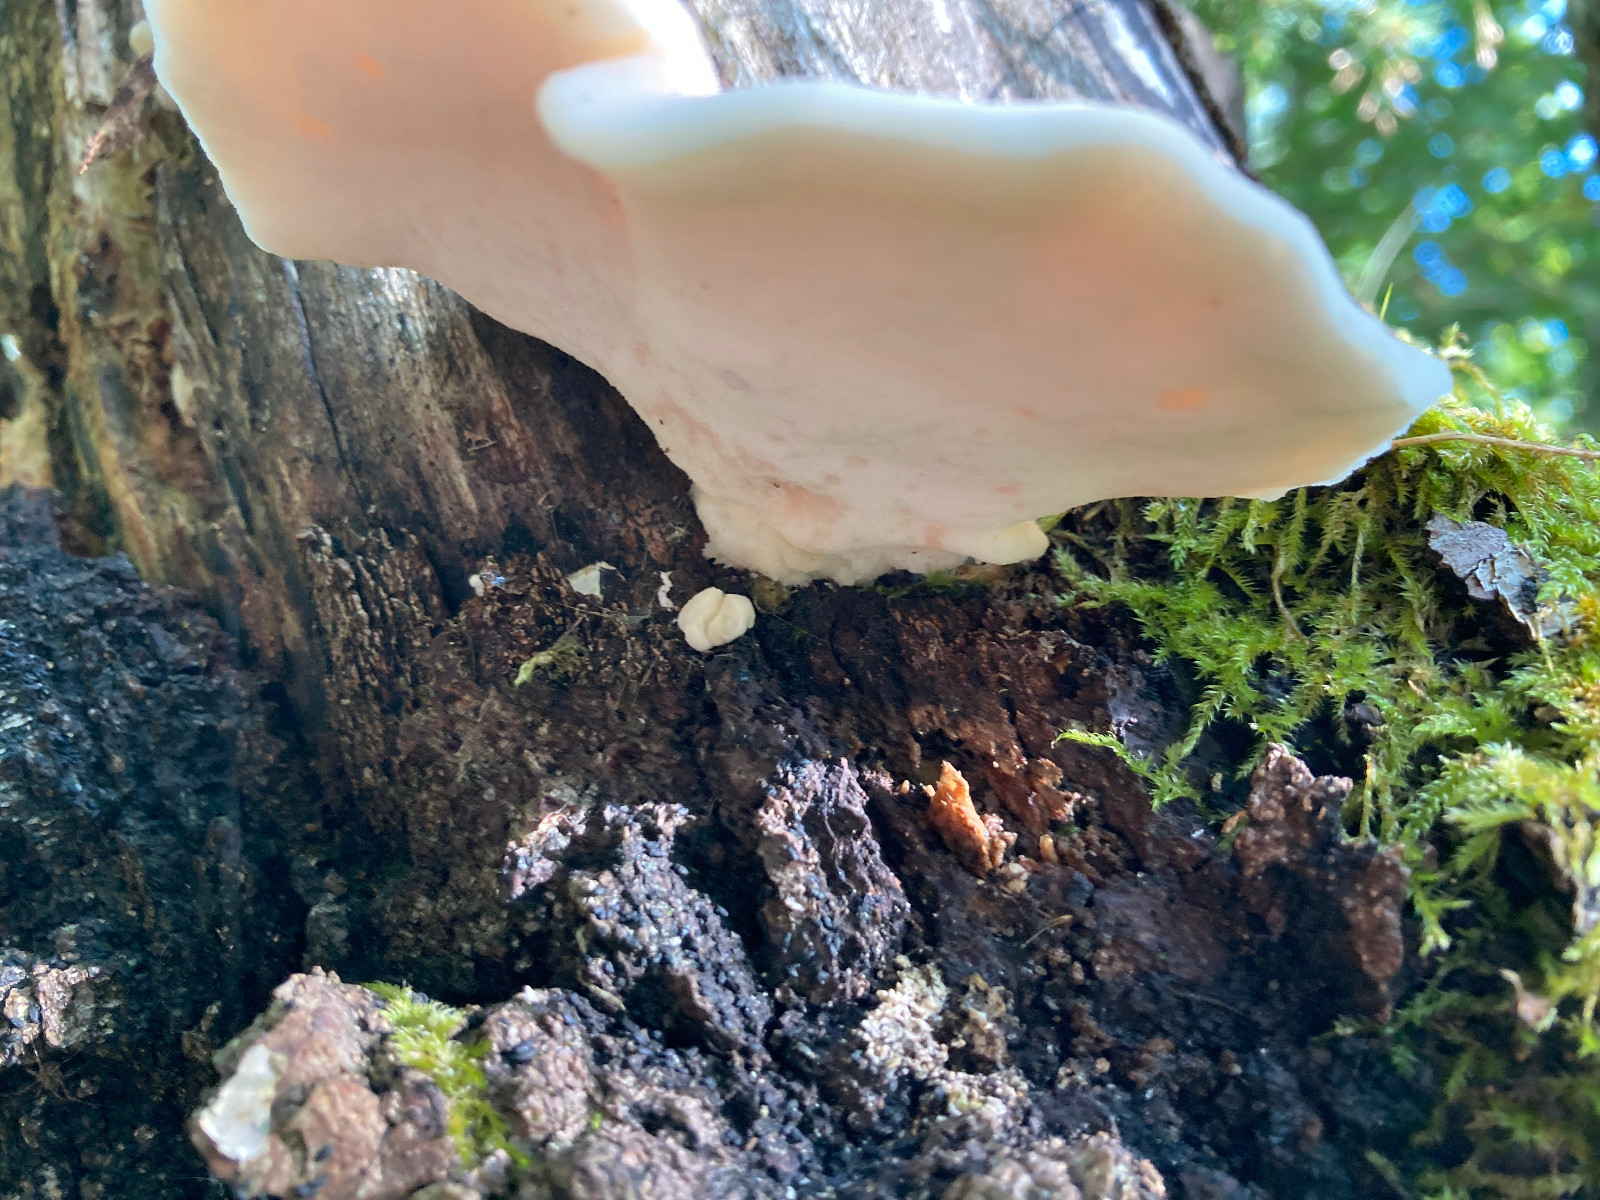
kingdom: Fungi
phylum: Basidiomycota
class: Agaricomycetes
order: Polyporales
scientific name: Polyporales
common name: poresvampordenen
